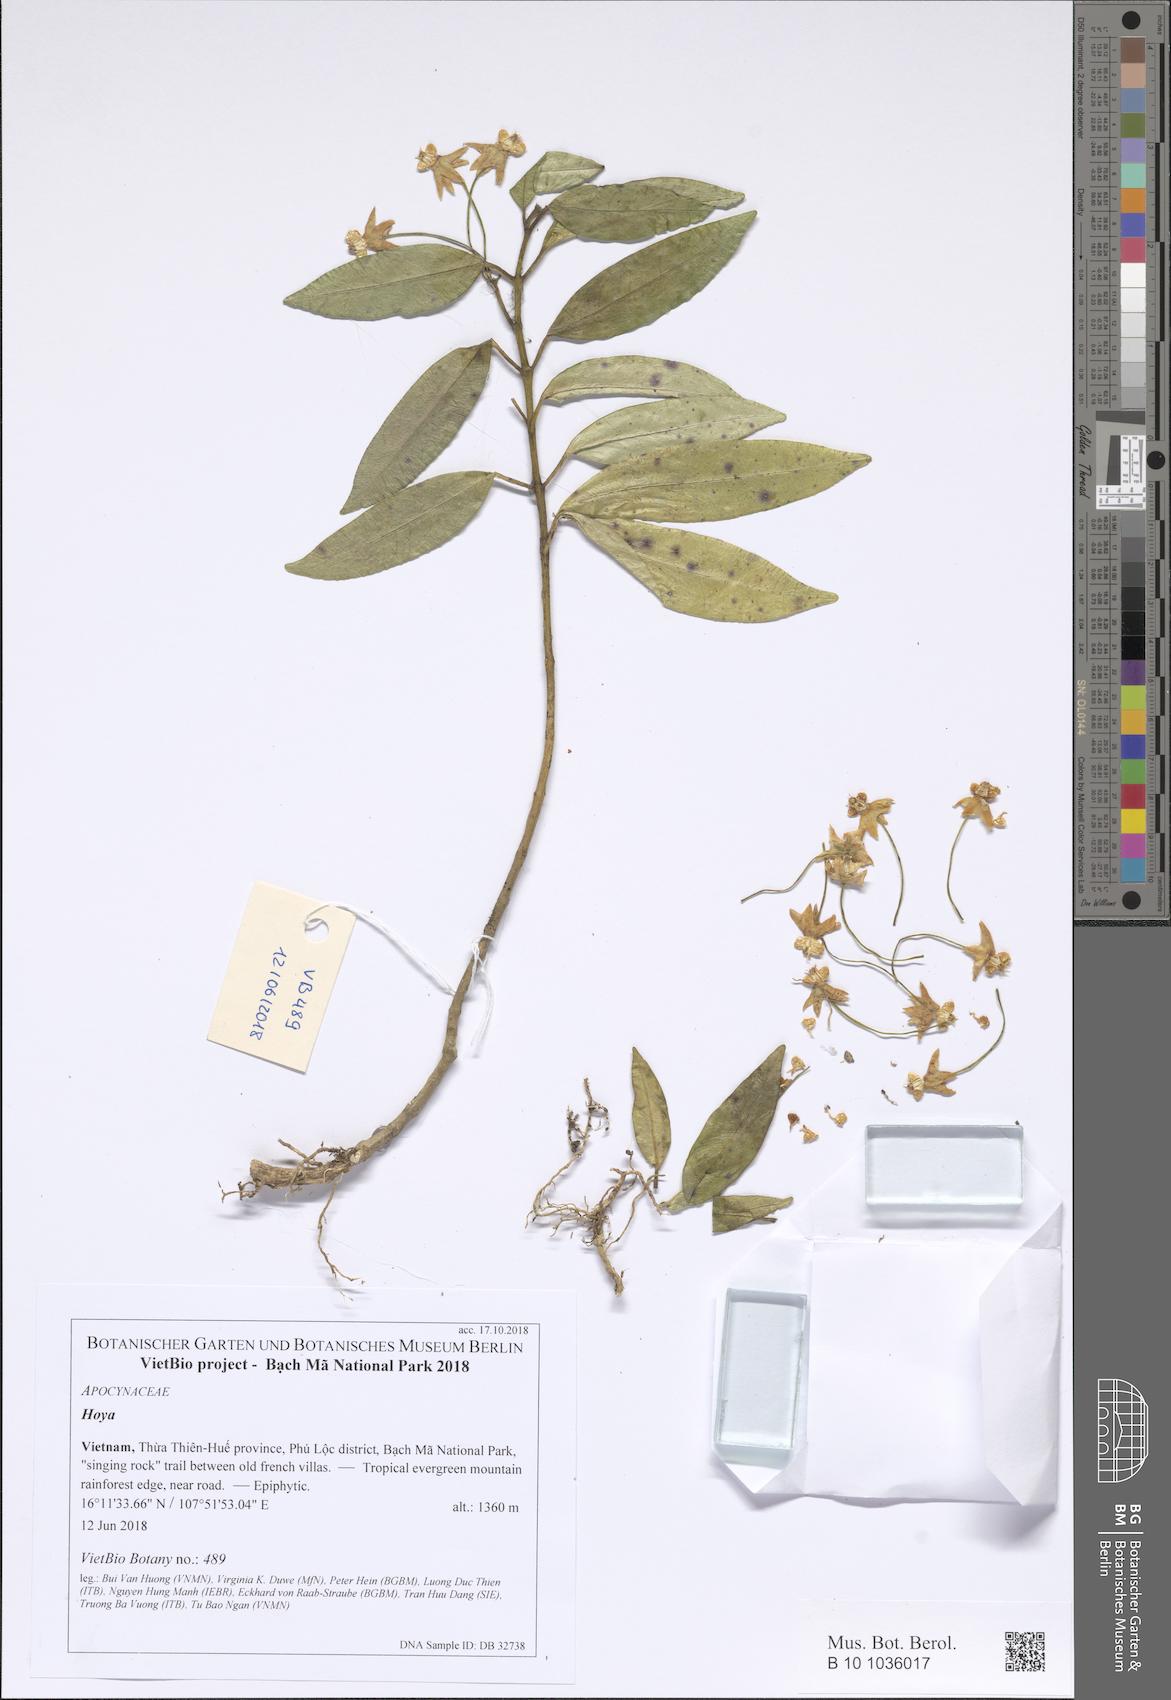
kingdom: Plantae
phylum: Tracheophyta
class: Magnoliopsida
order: Gentianales
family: Apocynaceae
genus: Hoya
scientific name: Hoya multiflora
